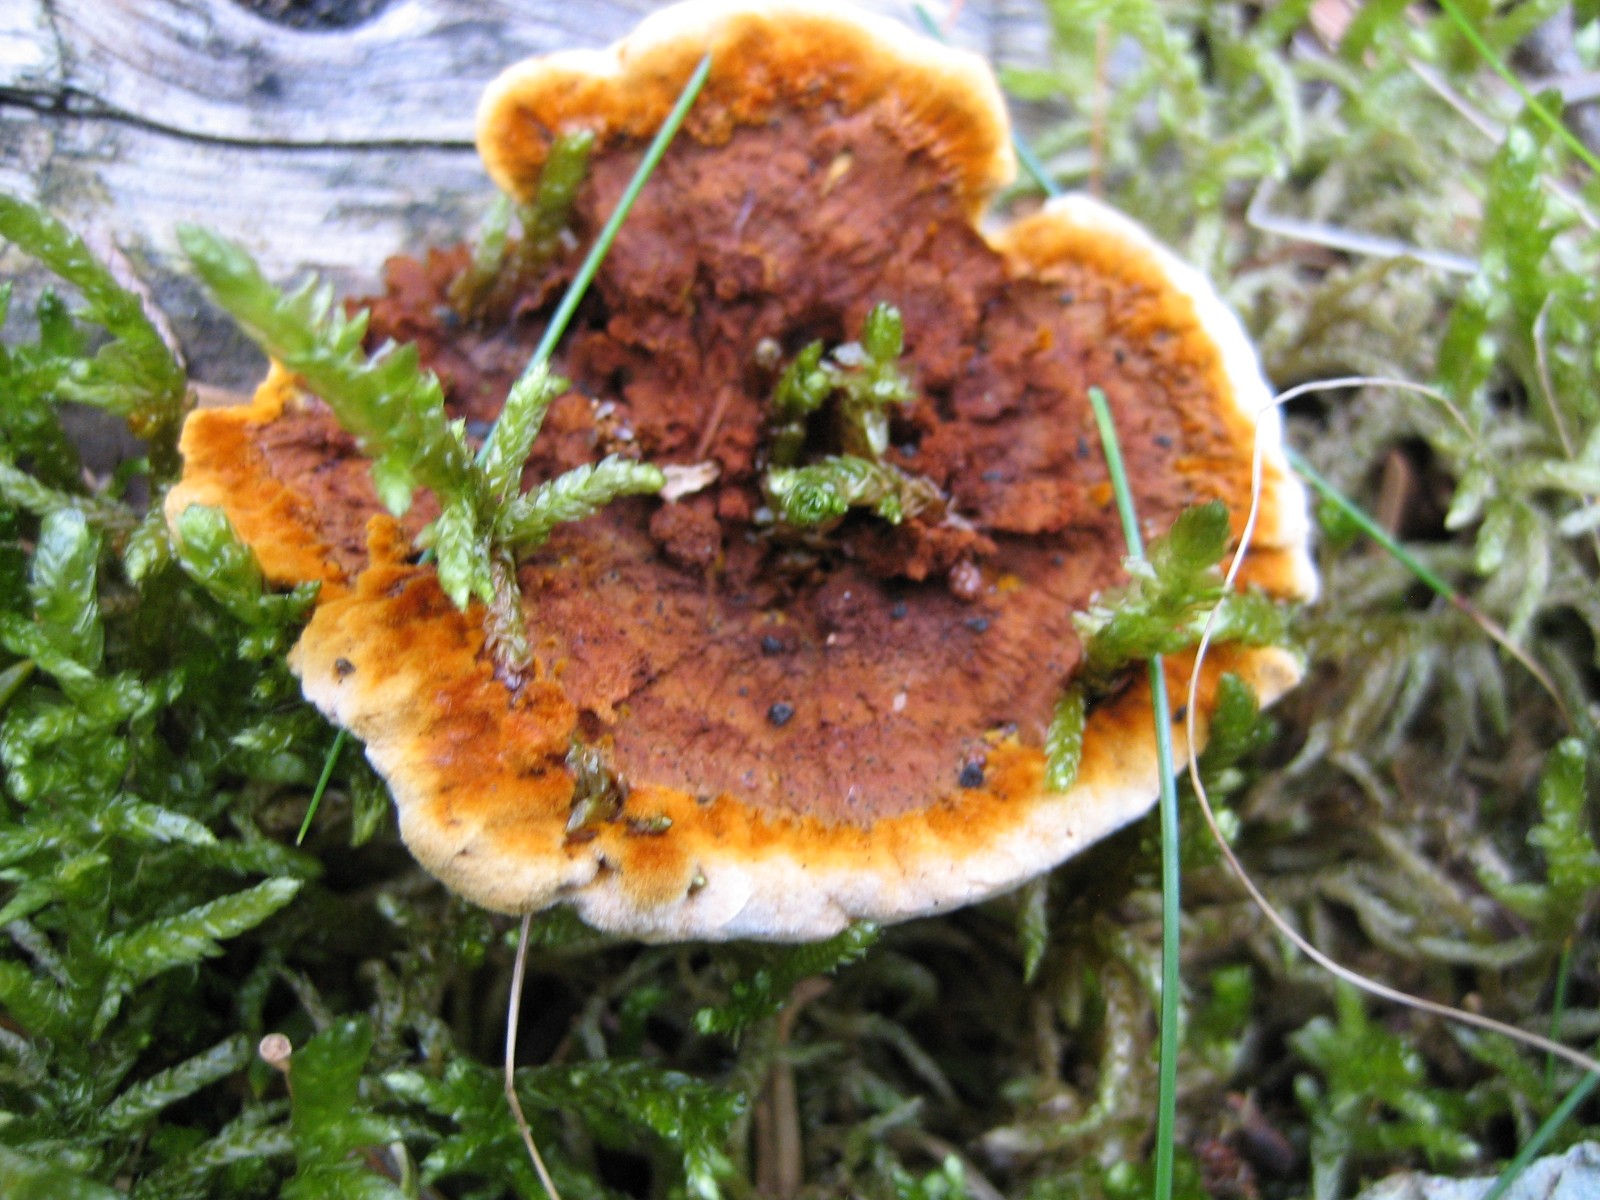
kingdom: Fungi
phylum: Basidiomycota
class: Agaricomycetes
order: Gloeophyllales
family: Gloeophyllaceae
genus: Gloeophyllum
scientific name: Gloeophyllum sepiarium
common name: fyrre-korkhat
